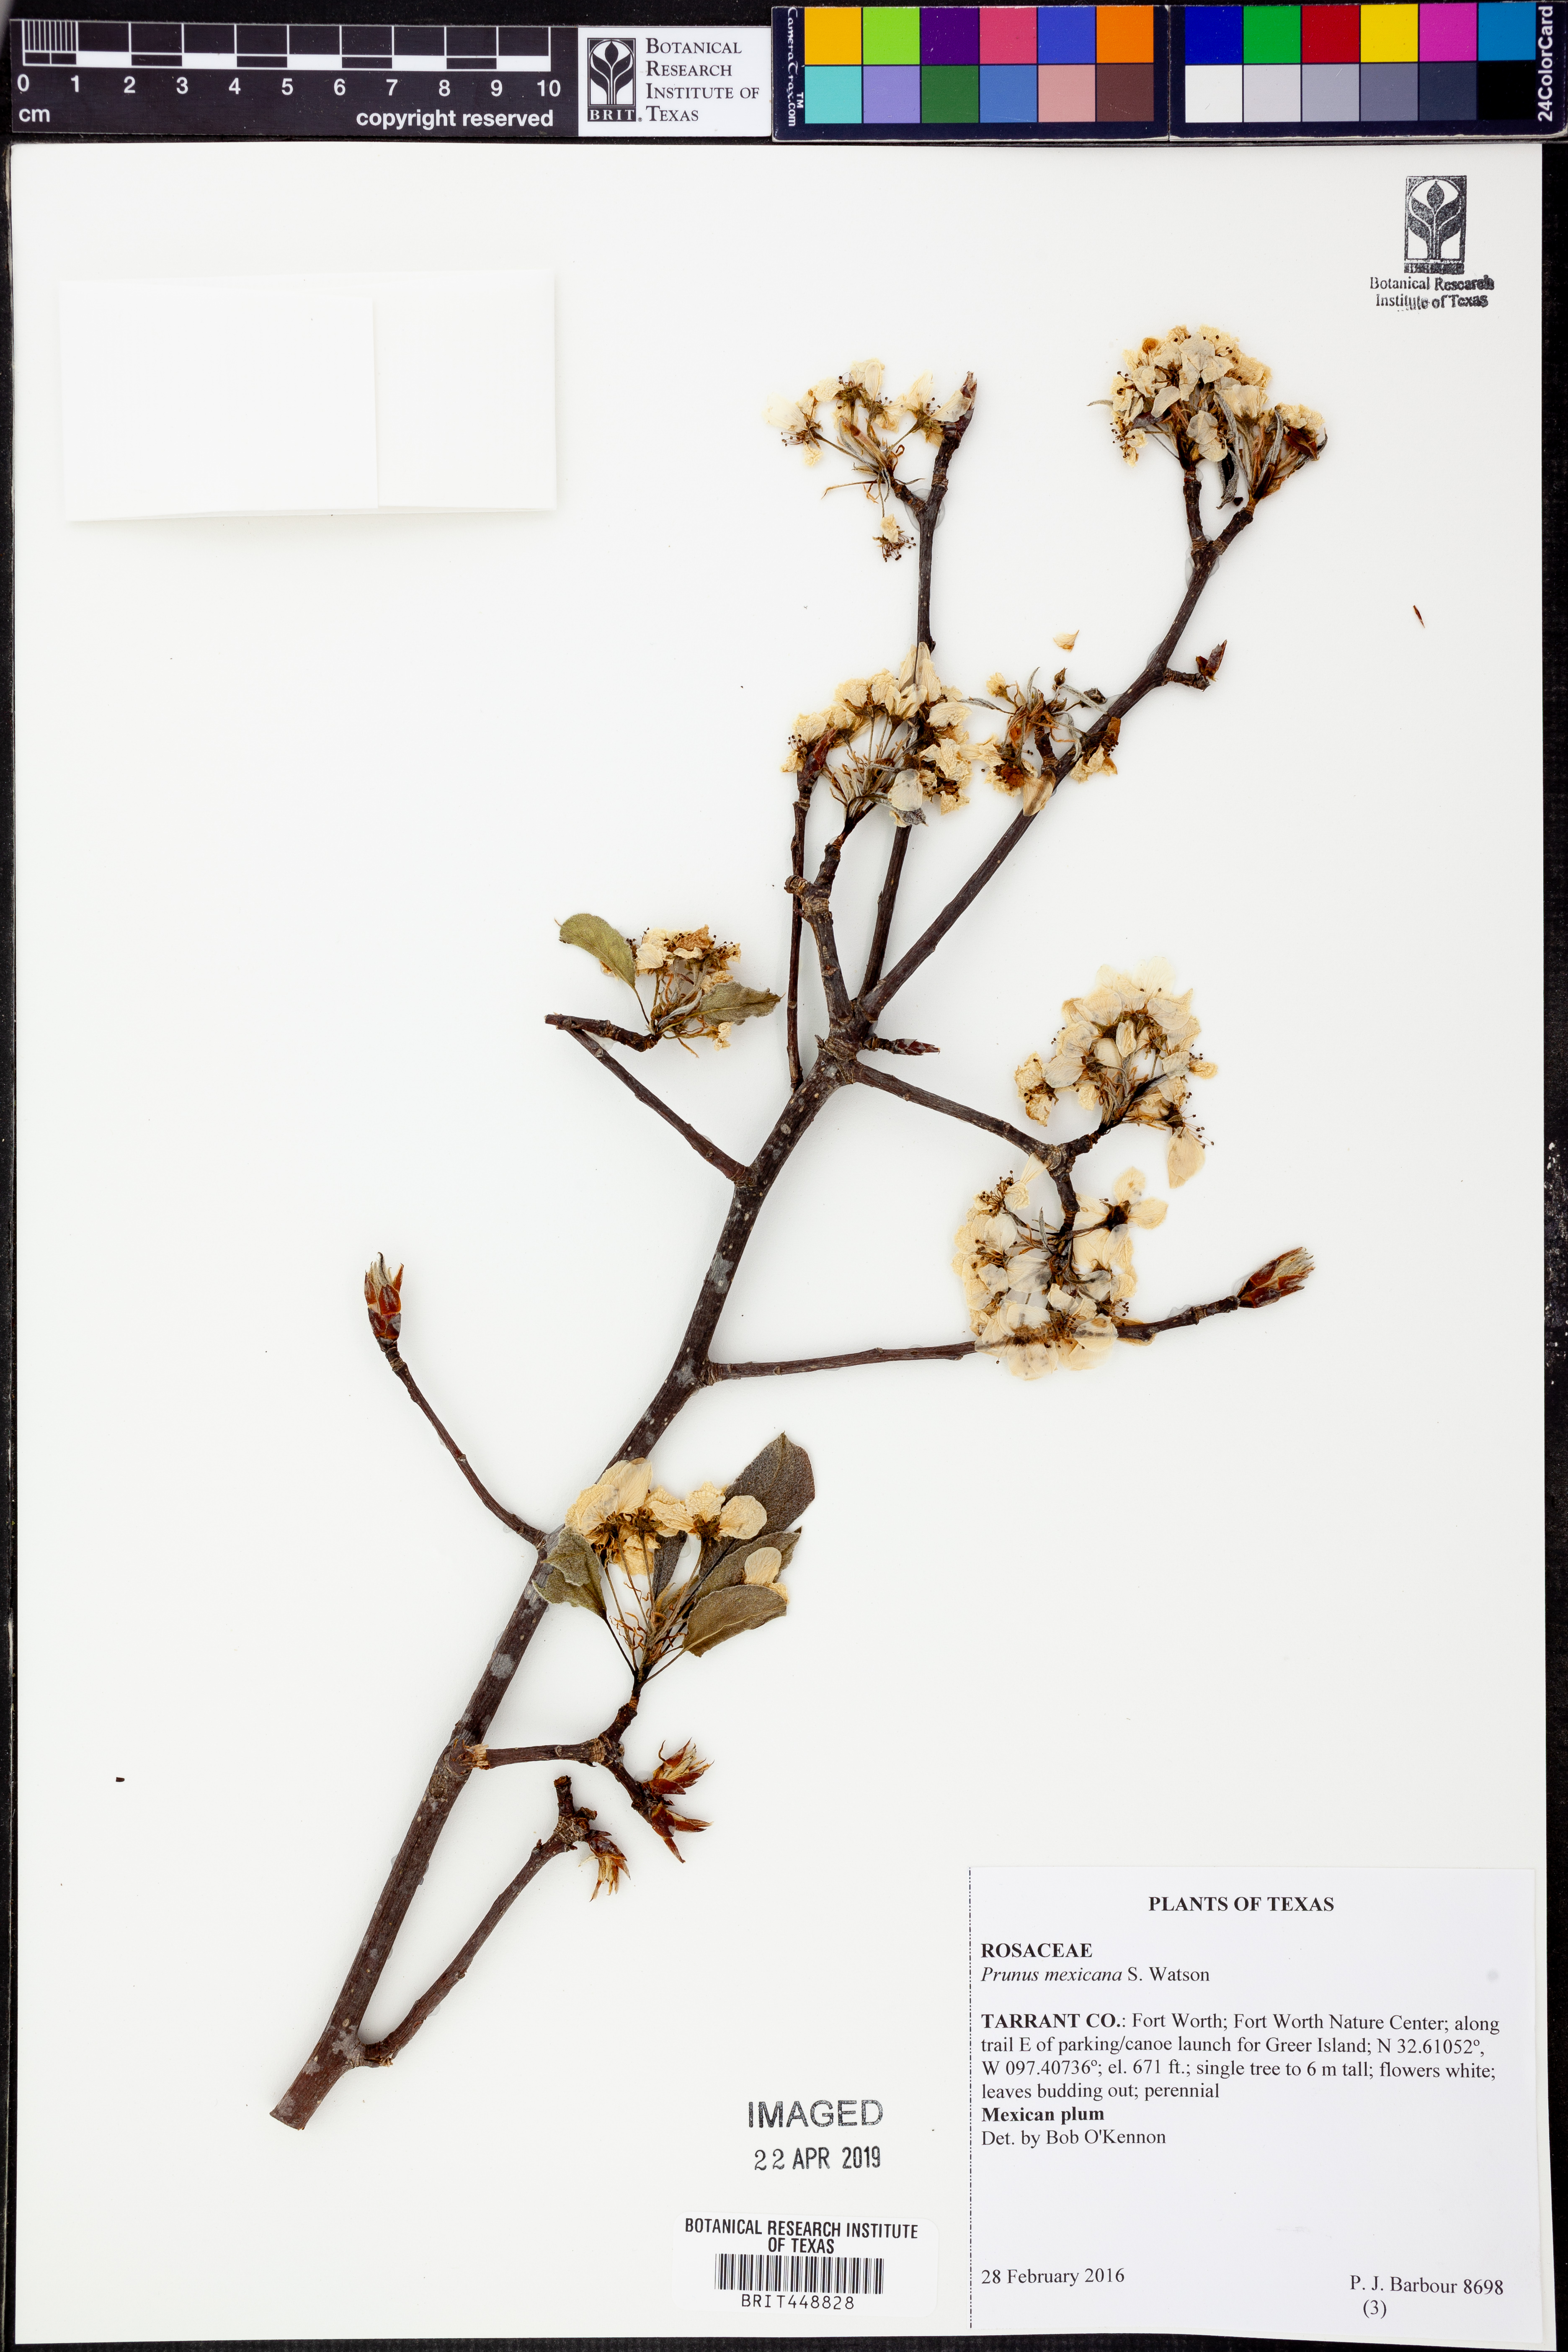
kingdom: Plantae
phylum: Tracheophyta
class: Magnoliopsida
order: Rosales
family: Rosaceae
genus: Prunus
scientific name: Prunus mexicana
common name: Mexican plum
